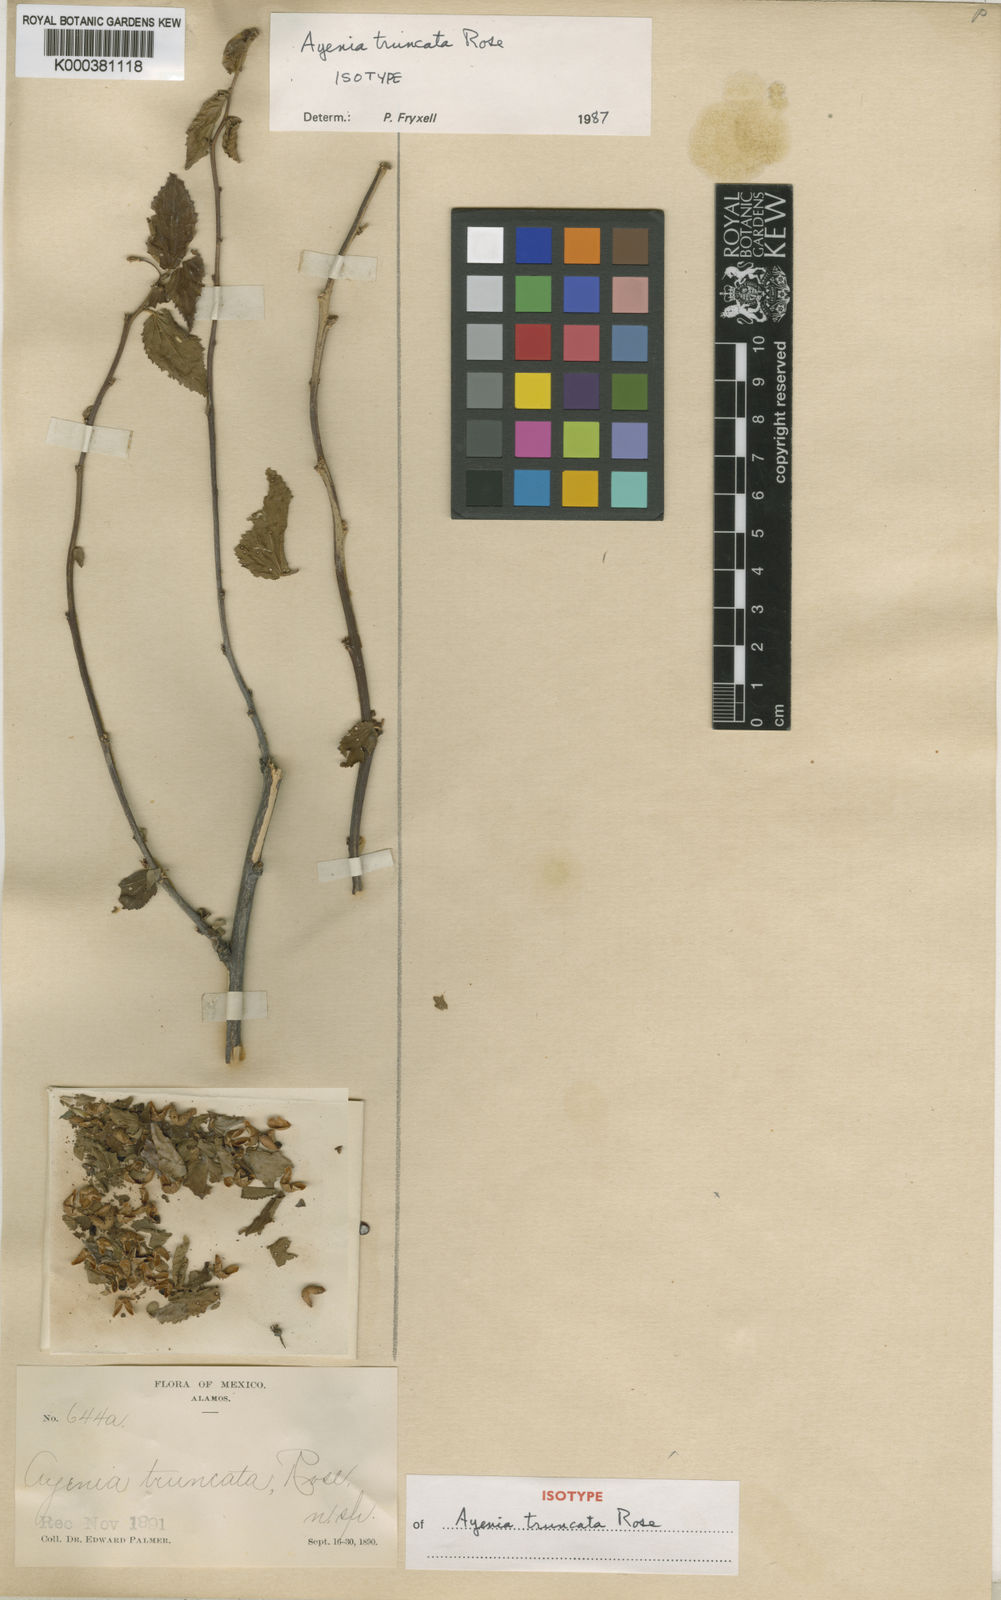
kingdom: Plantae
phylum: Tracheophyta
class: Magnoliopsida
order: Malvales
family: Malvaceae
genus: Ayenia
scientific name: Ayenia truncata
